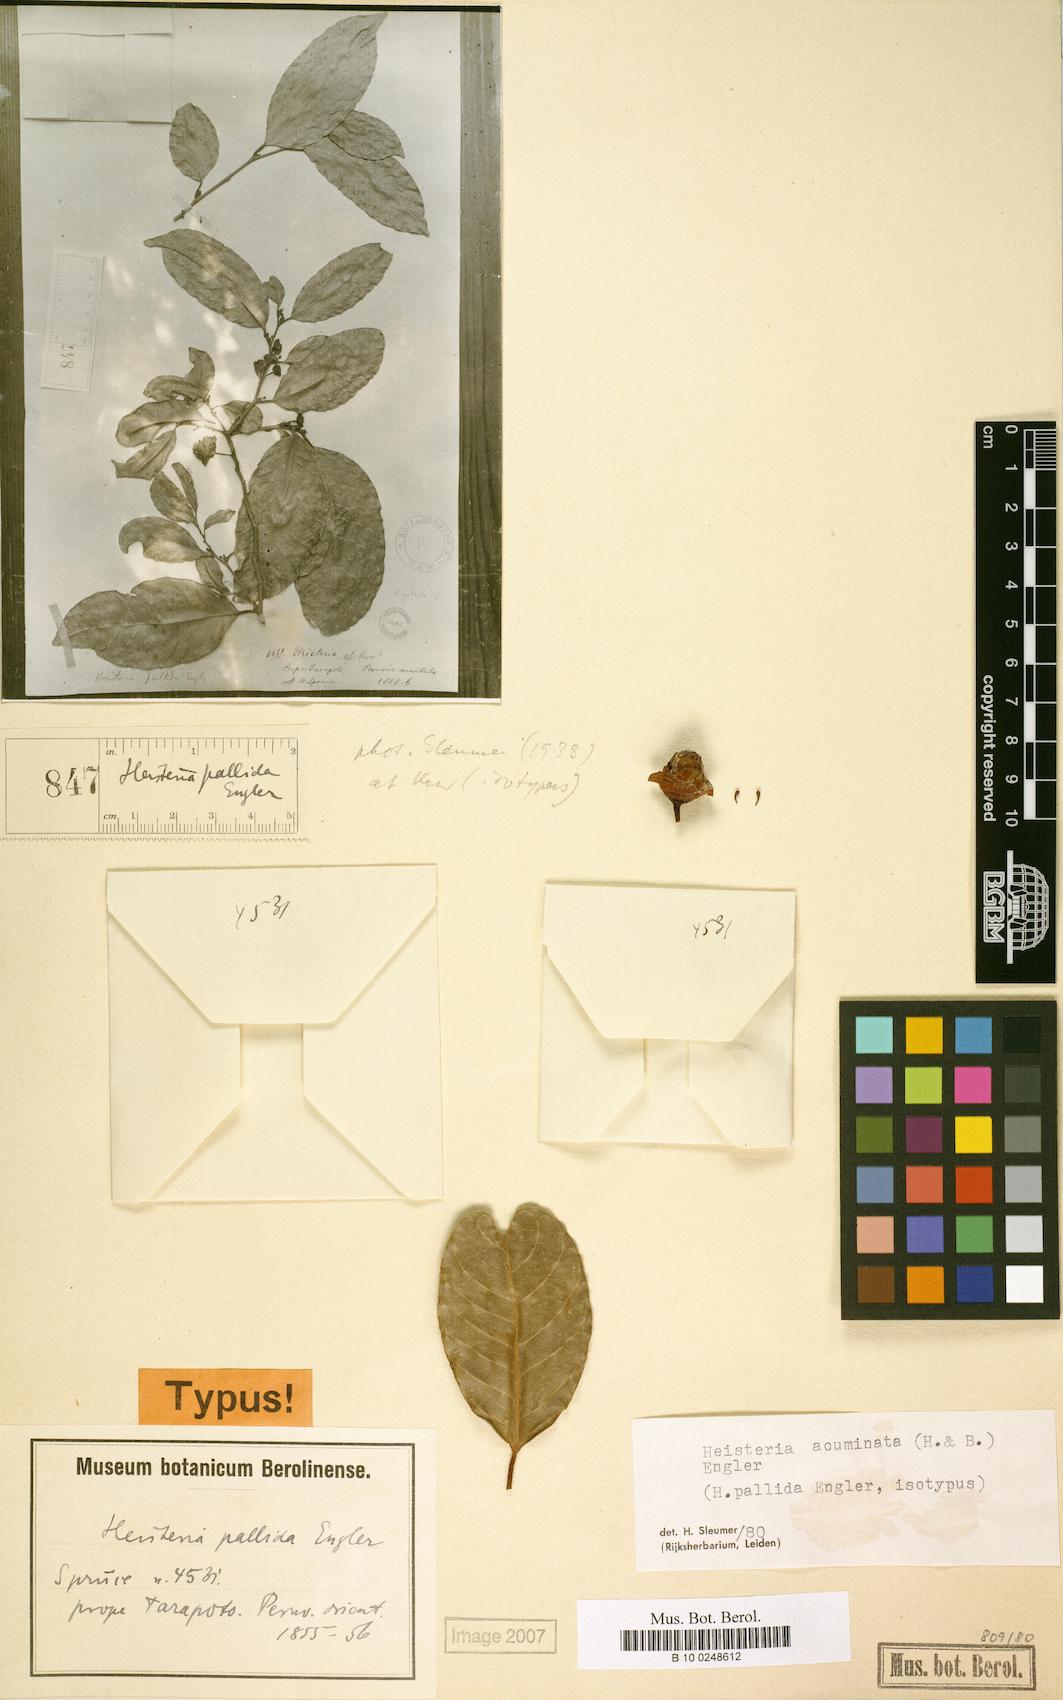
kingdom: Plantae
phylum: Tracheophyta
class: Magnoliopsida
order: Santalales
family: Erythropalaceae
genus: Heisteria
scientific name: Heisteria acuminata
